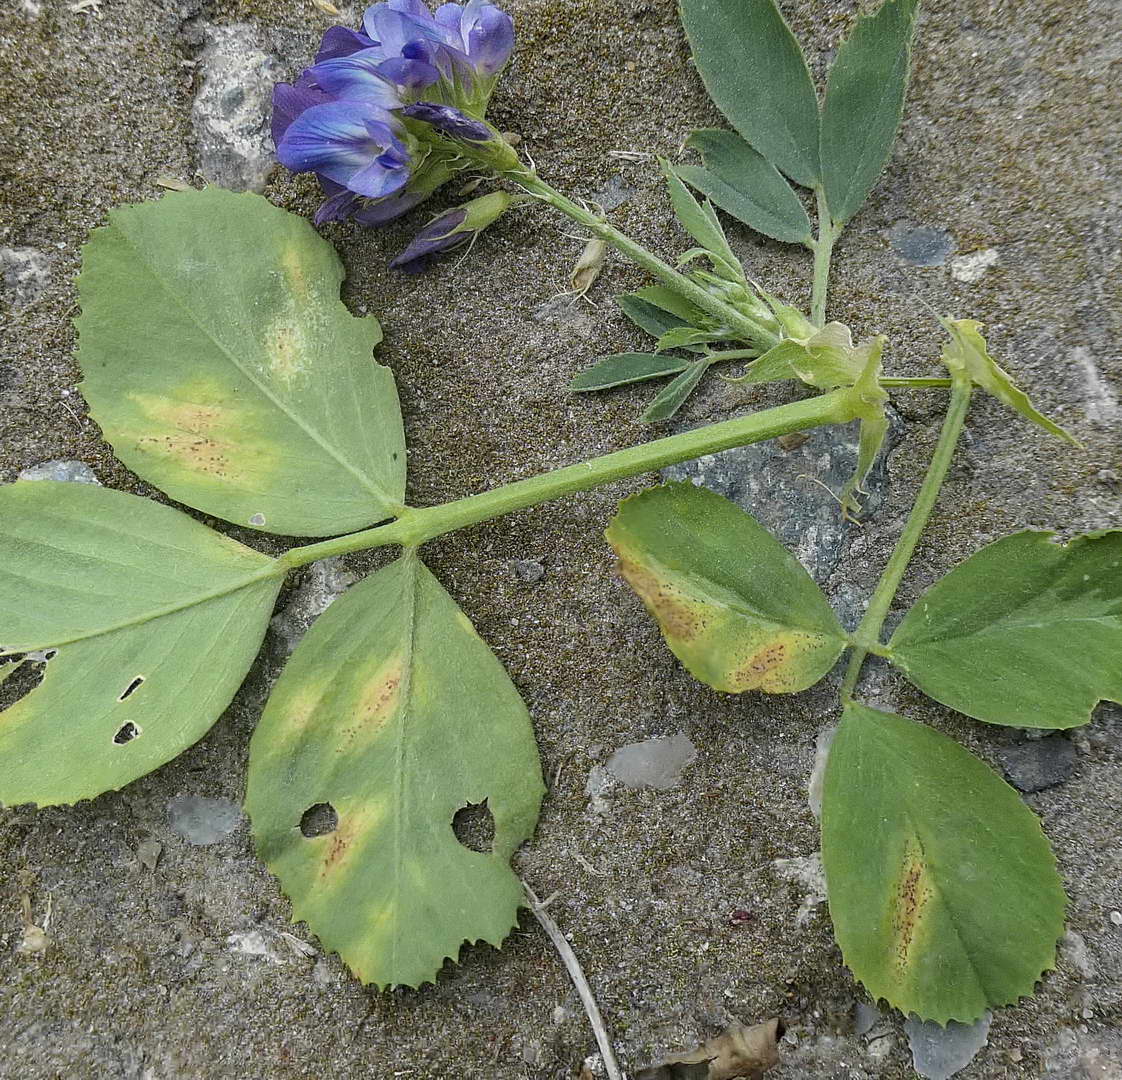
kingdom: Fungi
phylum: Basidiomycota
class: Pucciniomycetes
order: Pucciniales
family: Pucciniaceae
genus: Uromyces
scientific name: Uromyces pisi-sativi
